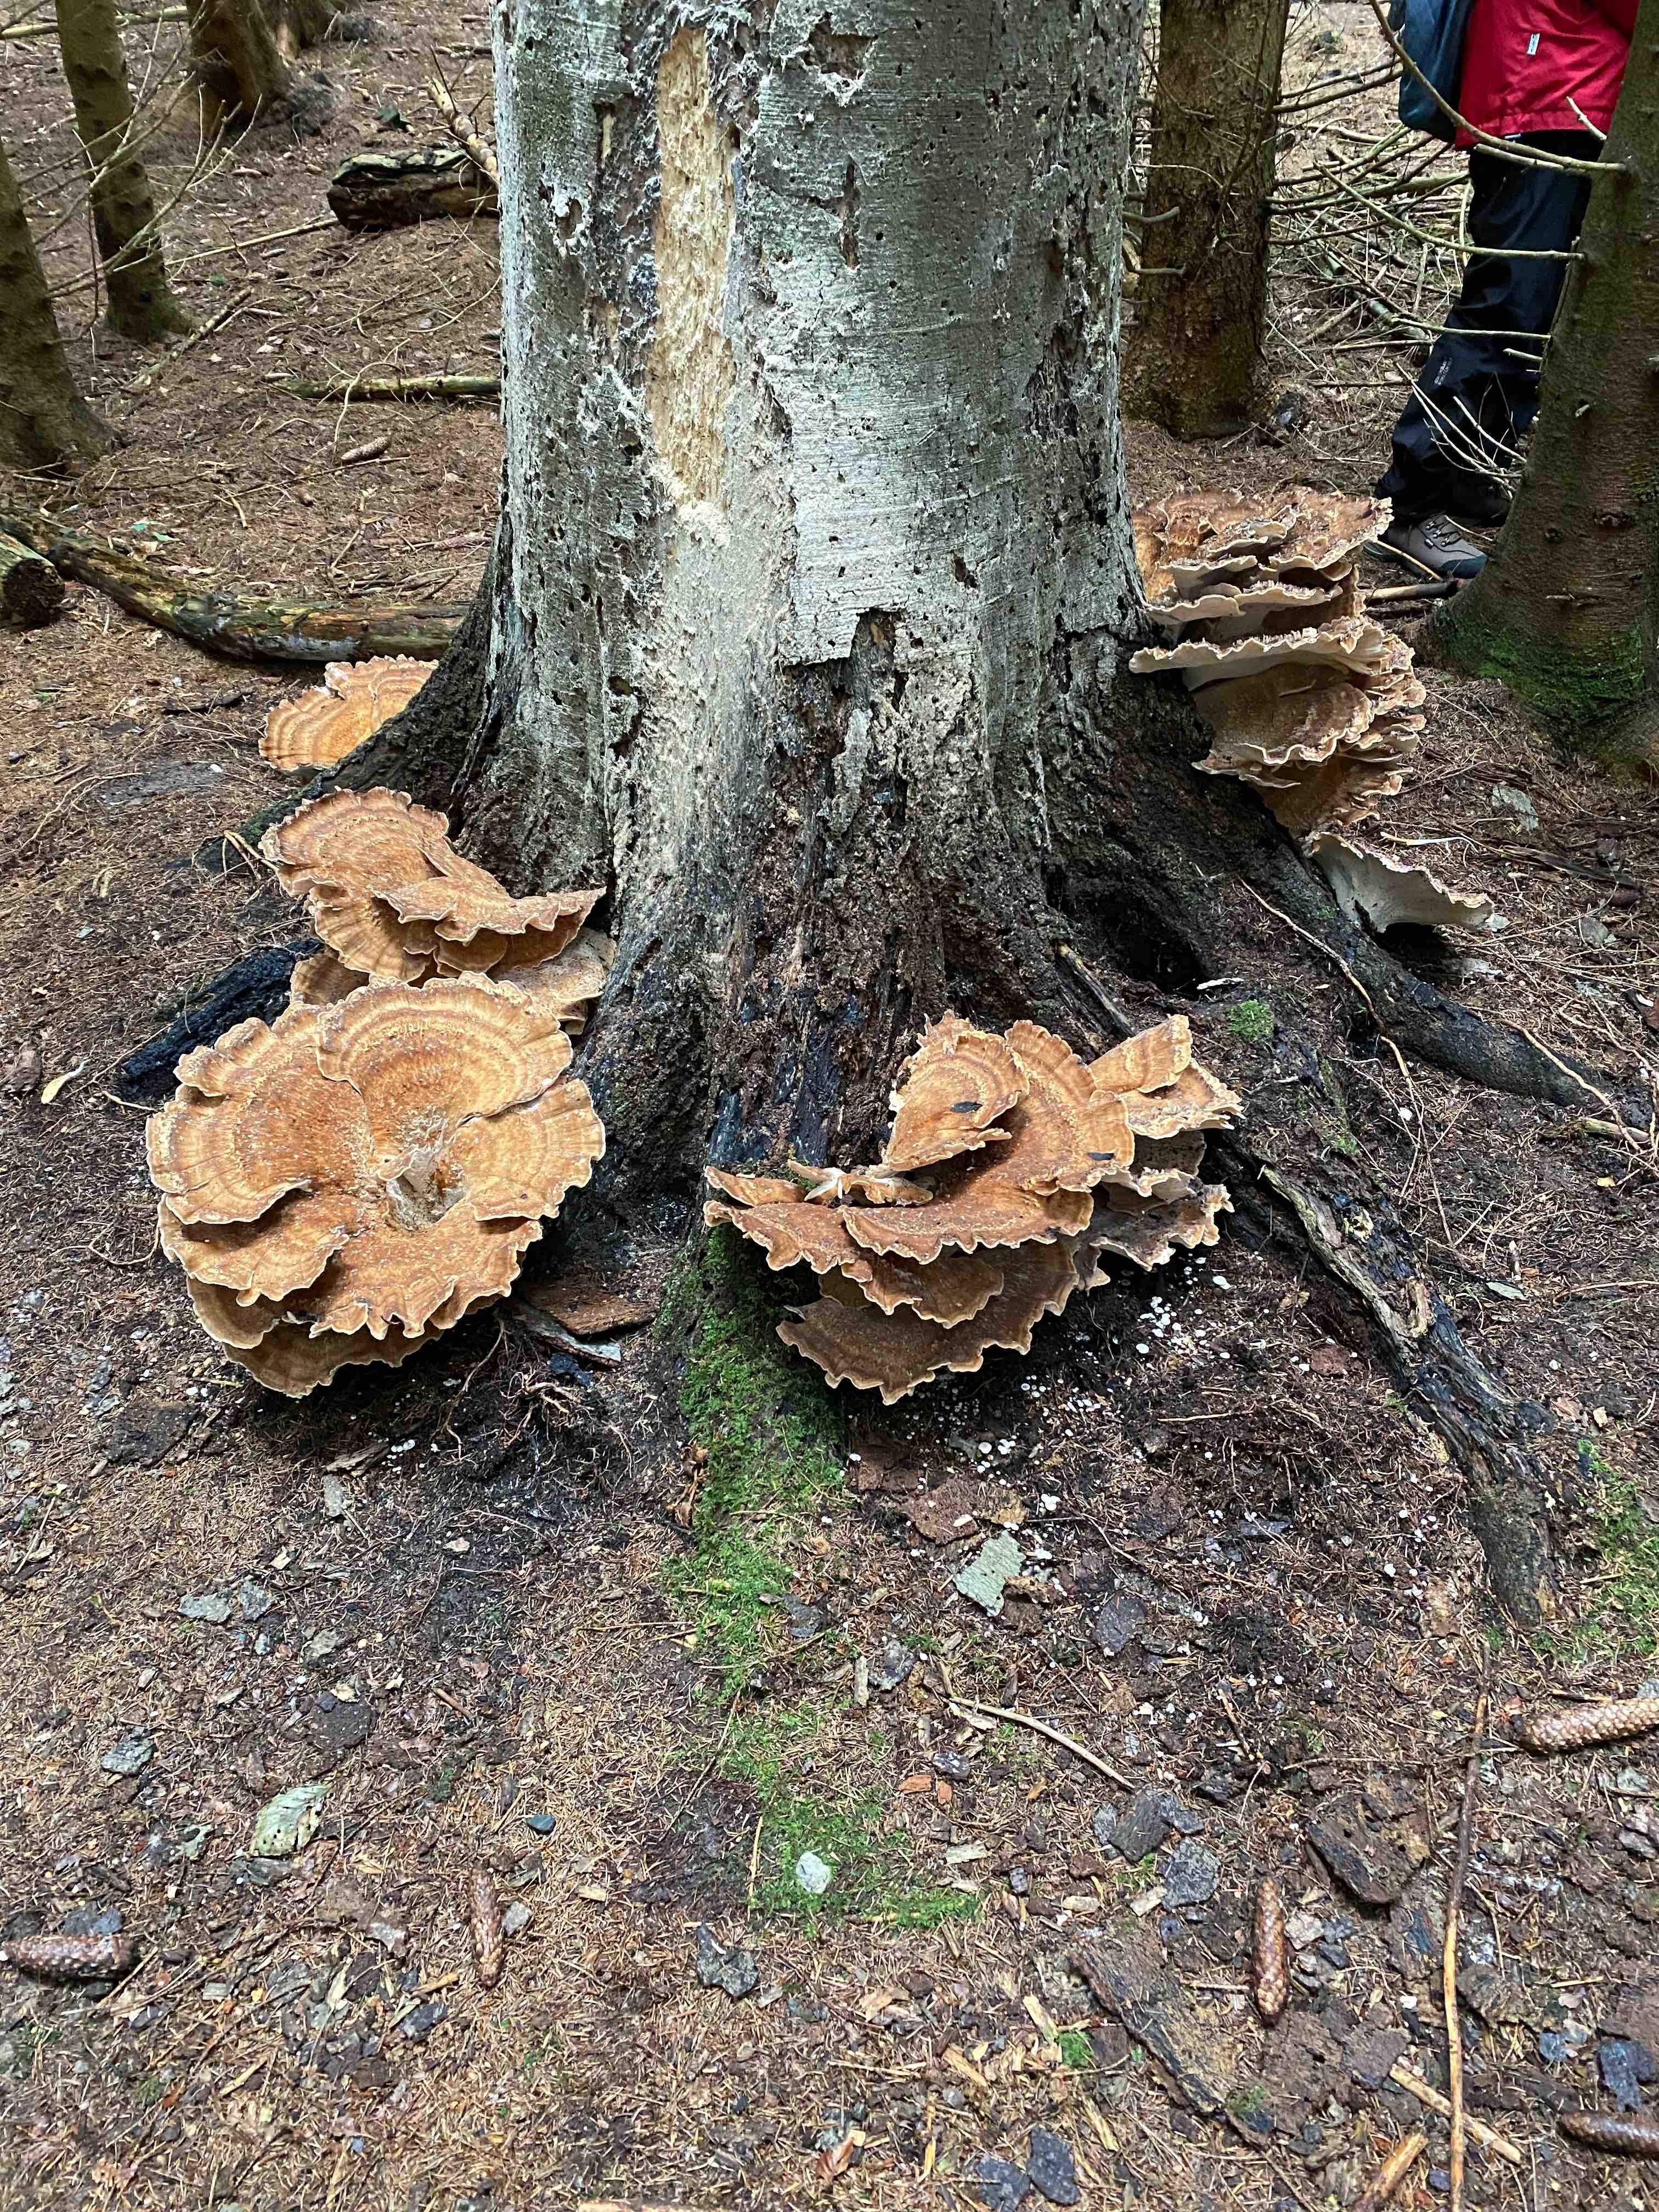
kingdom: Fungi
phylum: Basidiomycota
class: Agaricomycetes
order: Polyporales
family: Meripilaceae
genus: Meripilus
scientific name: Meripilus giganteus
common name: kæmpeporesvamp
